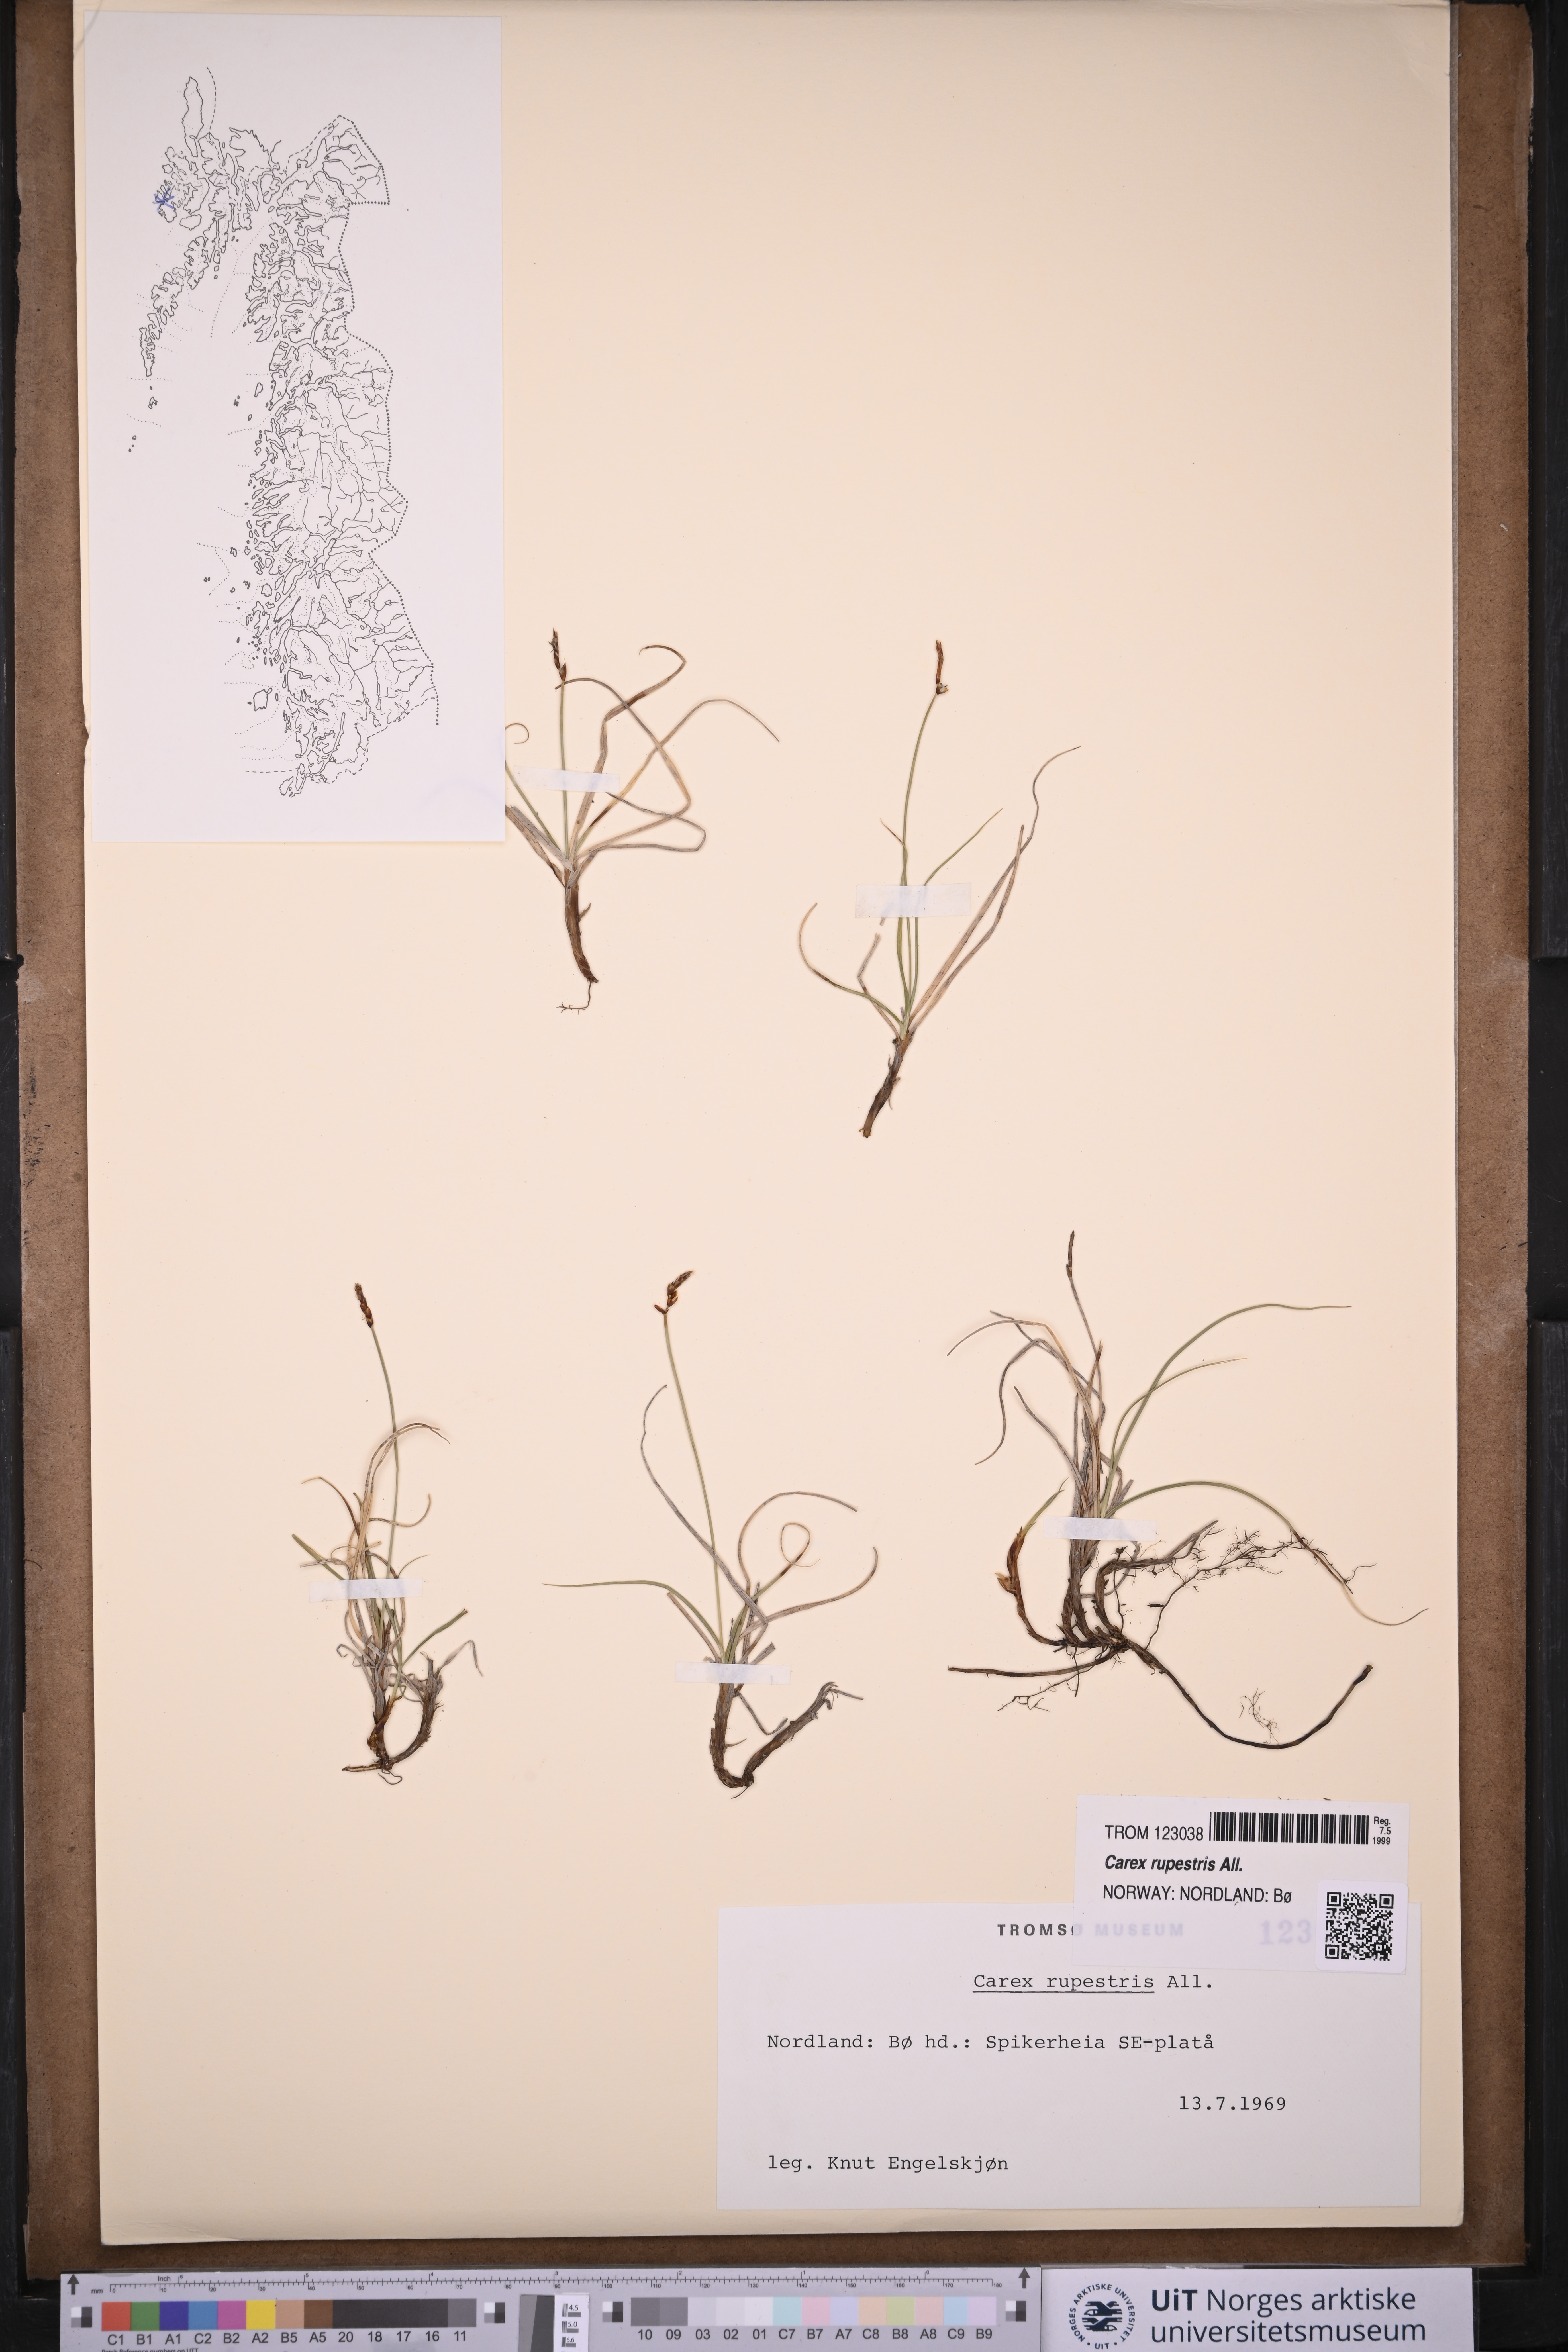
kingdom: Plantae
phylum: Tracheophyta
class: Liliopsida
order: Poales
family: Cyperaceae
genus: Carex
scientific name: Carex rupestris
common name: Rock sedge
